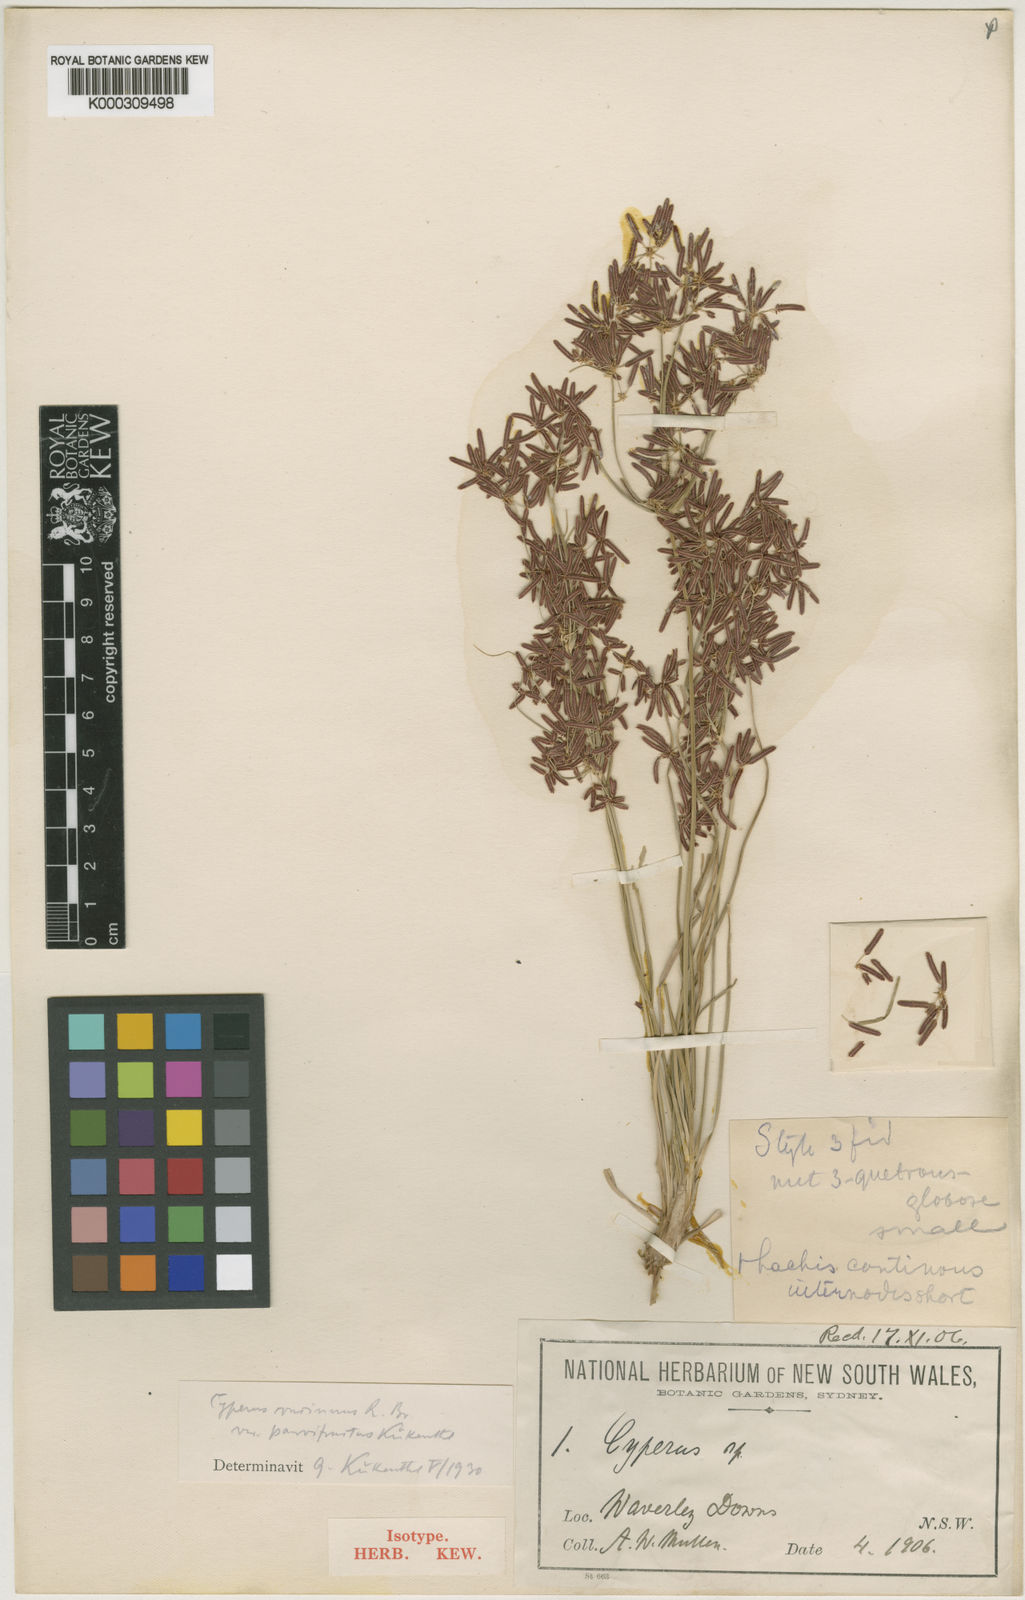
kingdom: Plantae
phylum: Tracheophyta
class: Liliopsida
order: Poales
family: Cyperaceae
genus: Cyperus
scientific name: Cyperus concinnus
